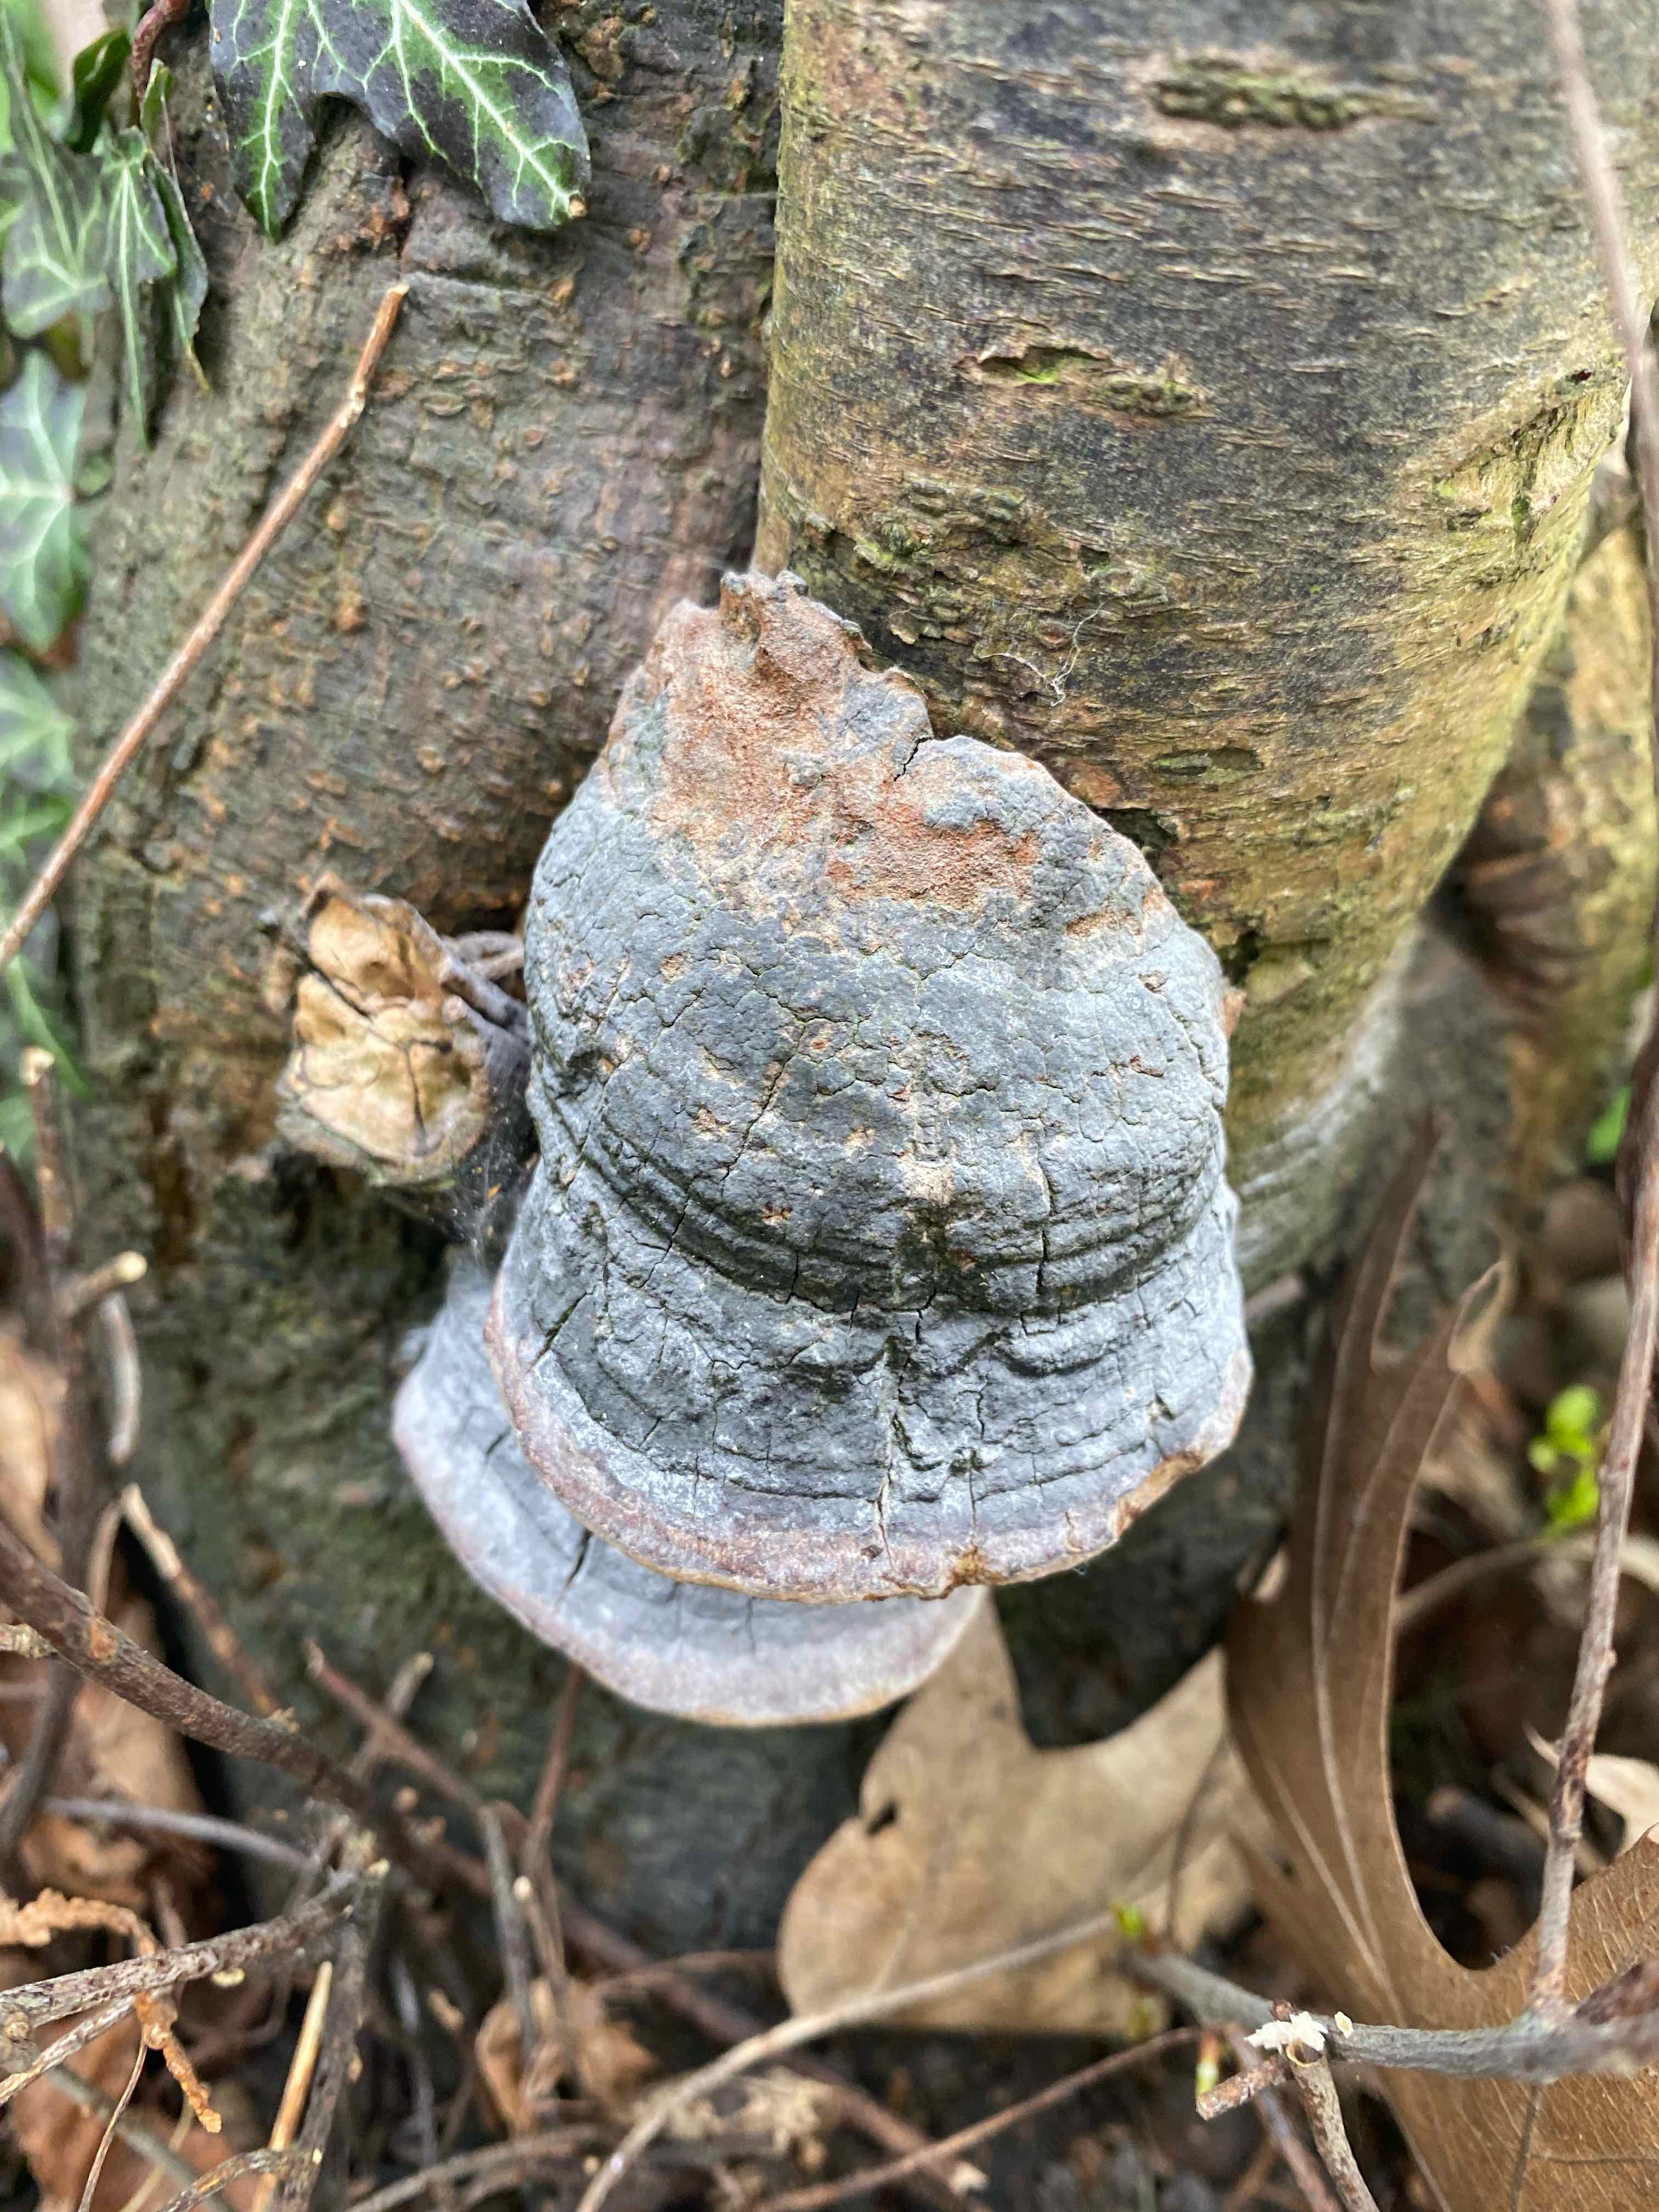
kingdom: Fungi
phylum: Basidiomycota
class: Agaricomycetes
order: Polyporales
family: Polyporaceae
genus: Fomes
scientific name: Fomes fomentarius
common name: tøndersvamp
